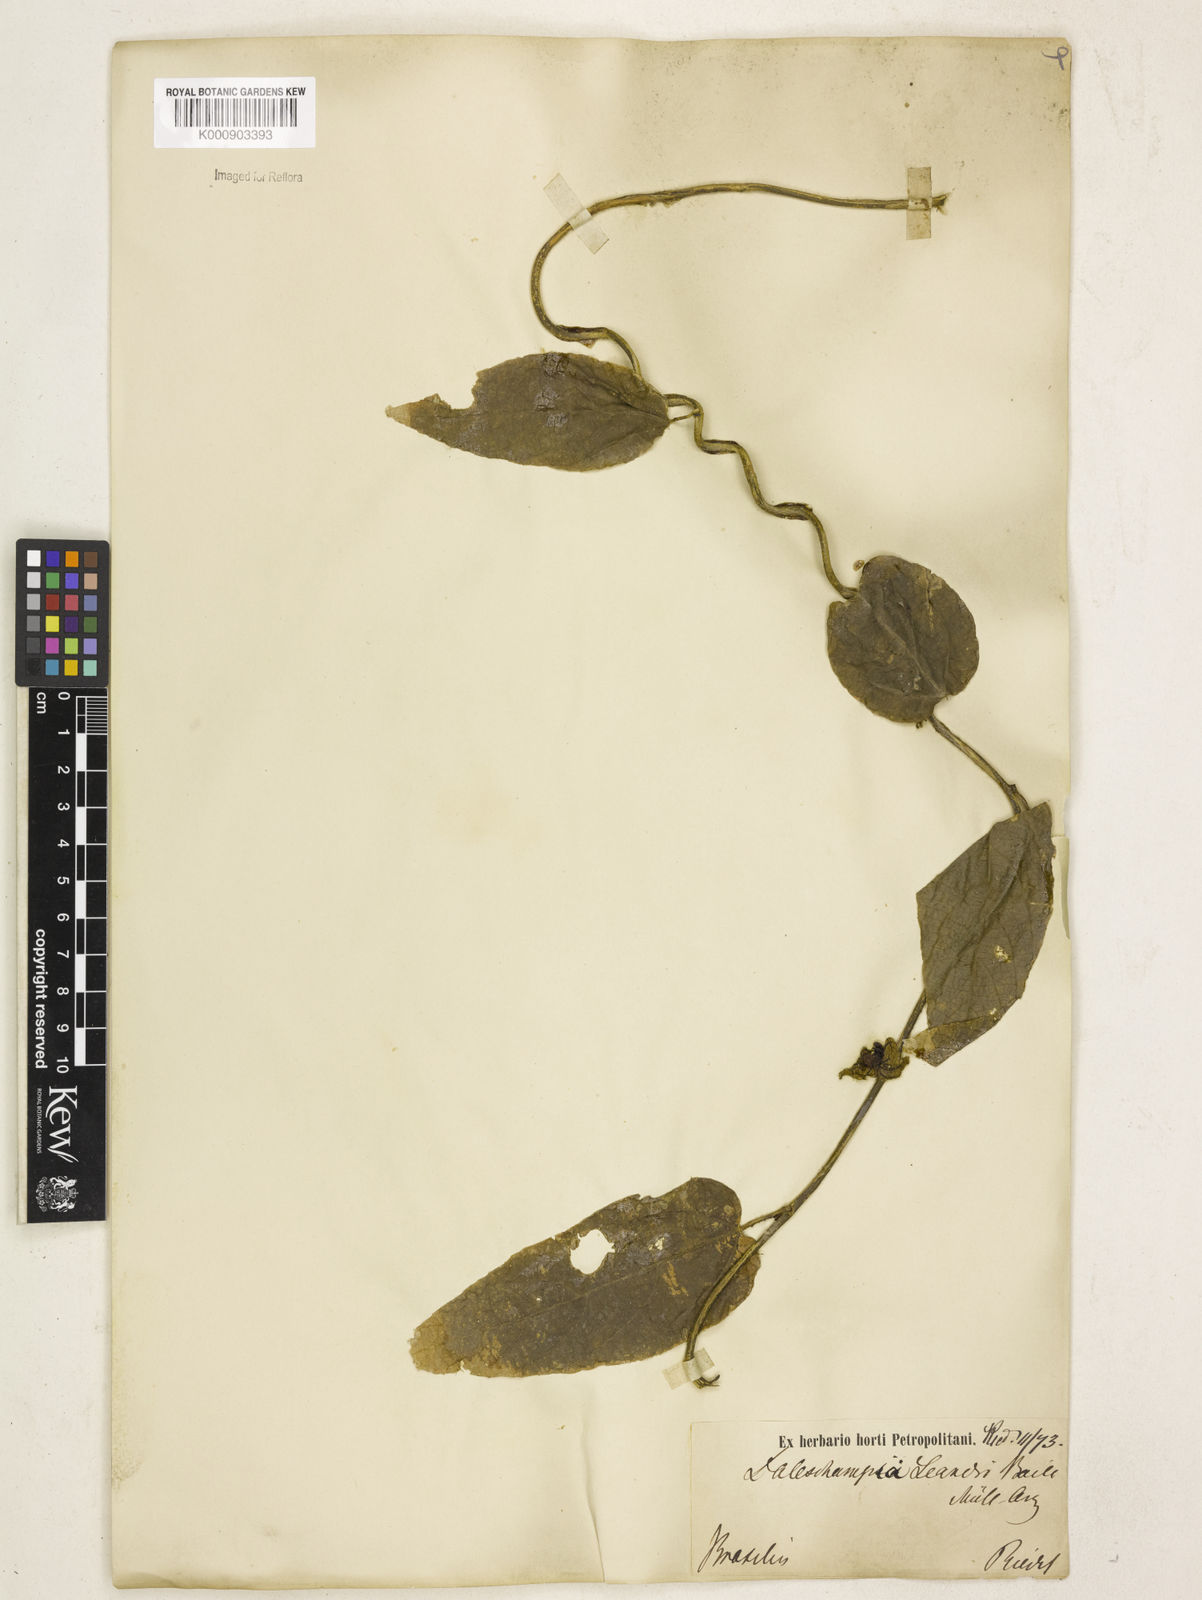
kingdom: Plantae
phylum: Tracheophyta
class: Magnoliopsida
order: Malpighiales
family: Euphorbiaceae
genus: Dalechampia
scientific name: Dalechampia leandrii
